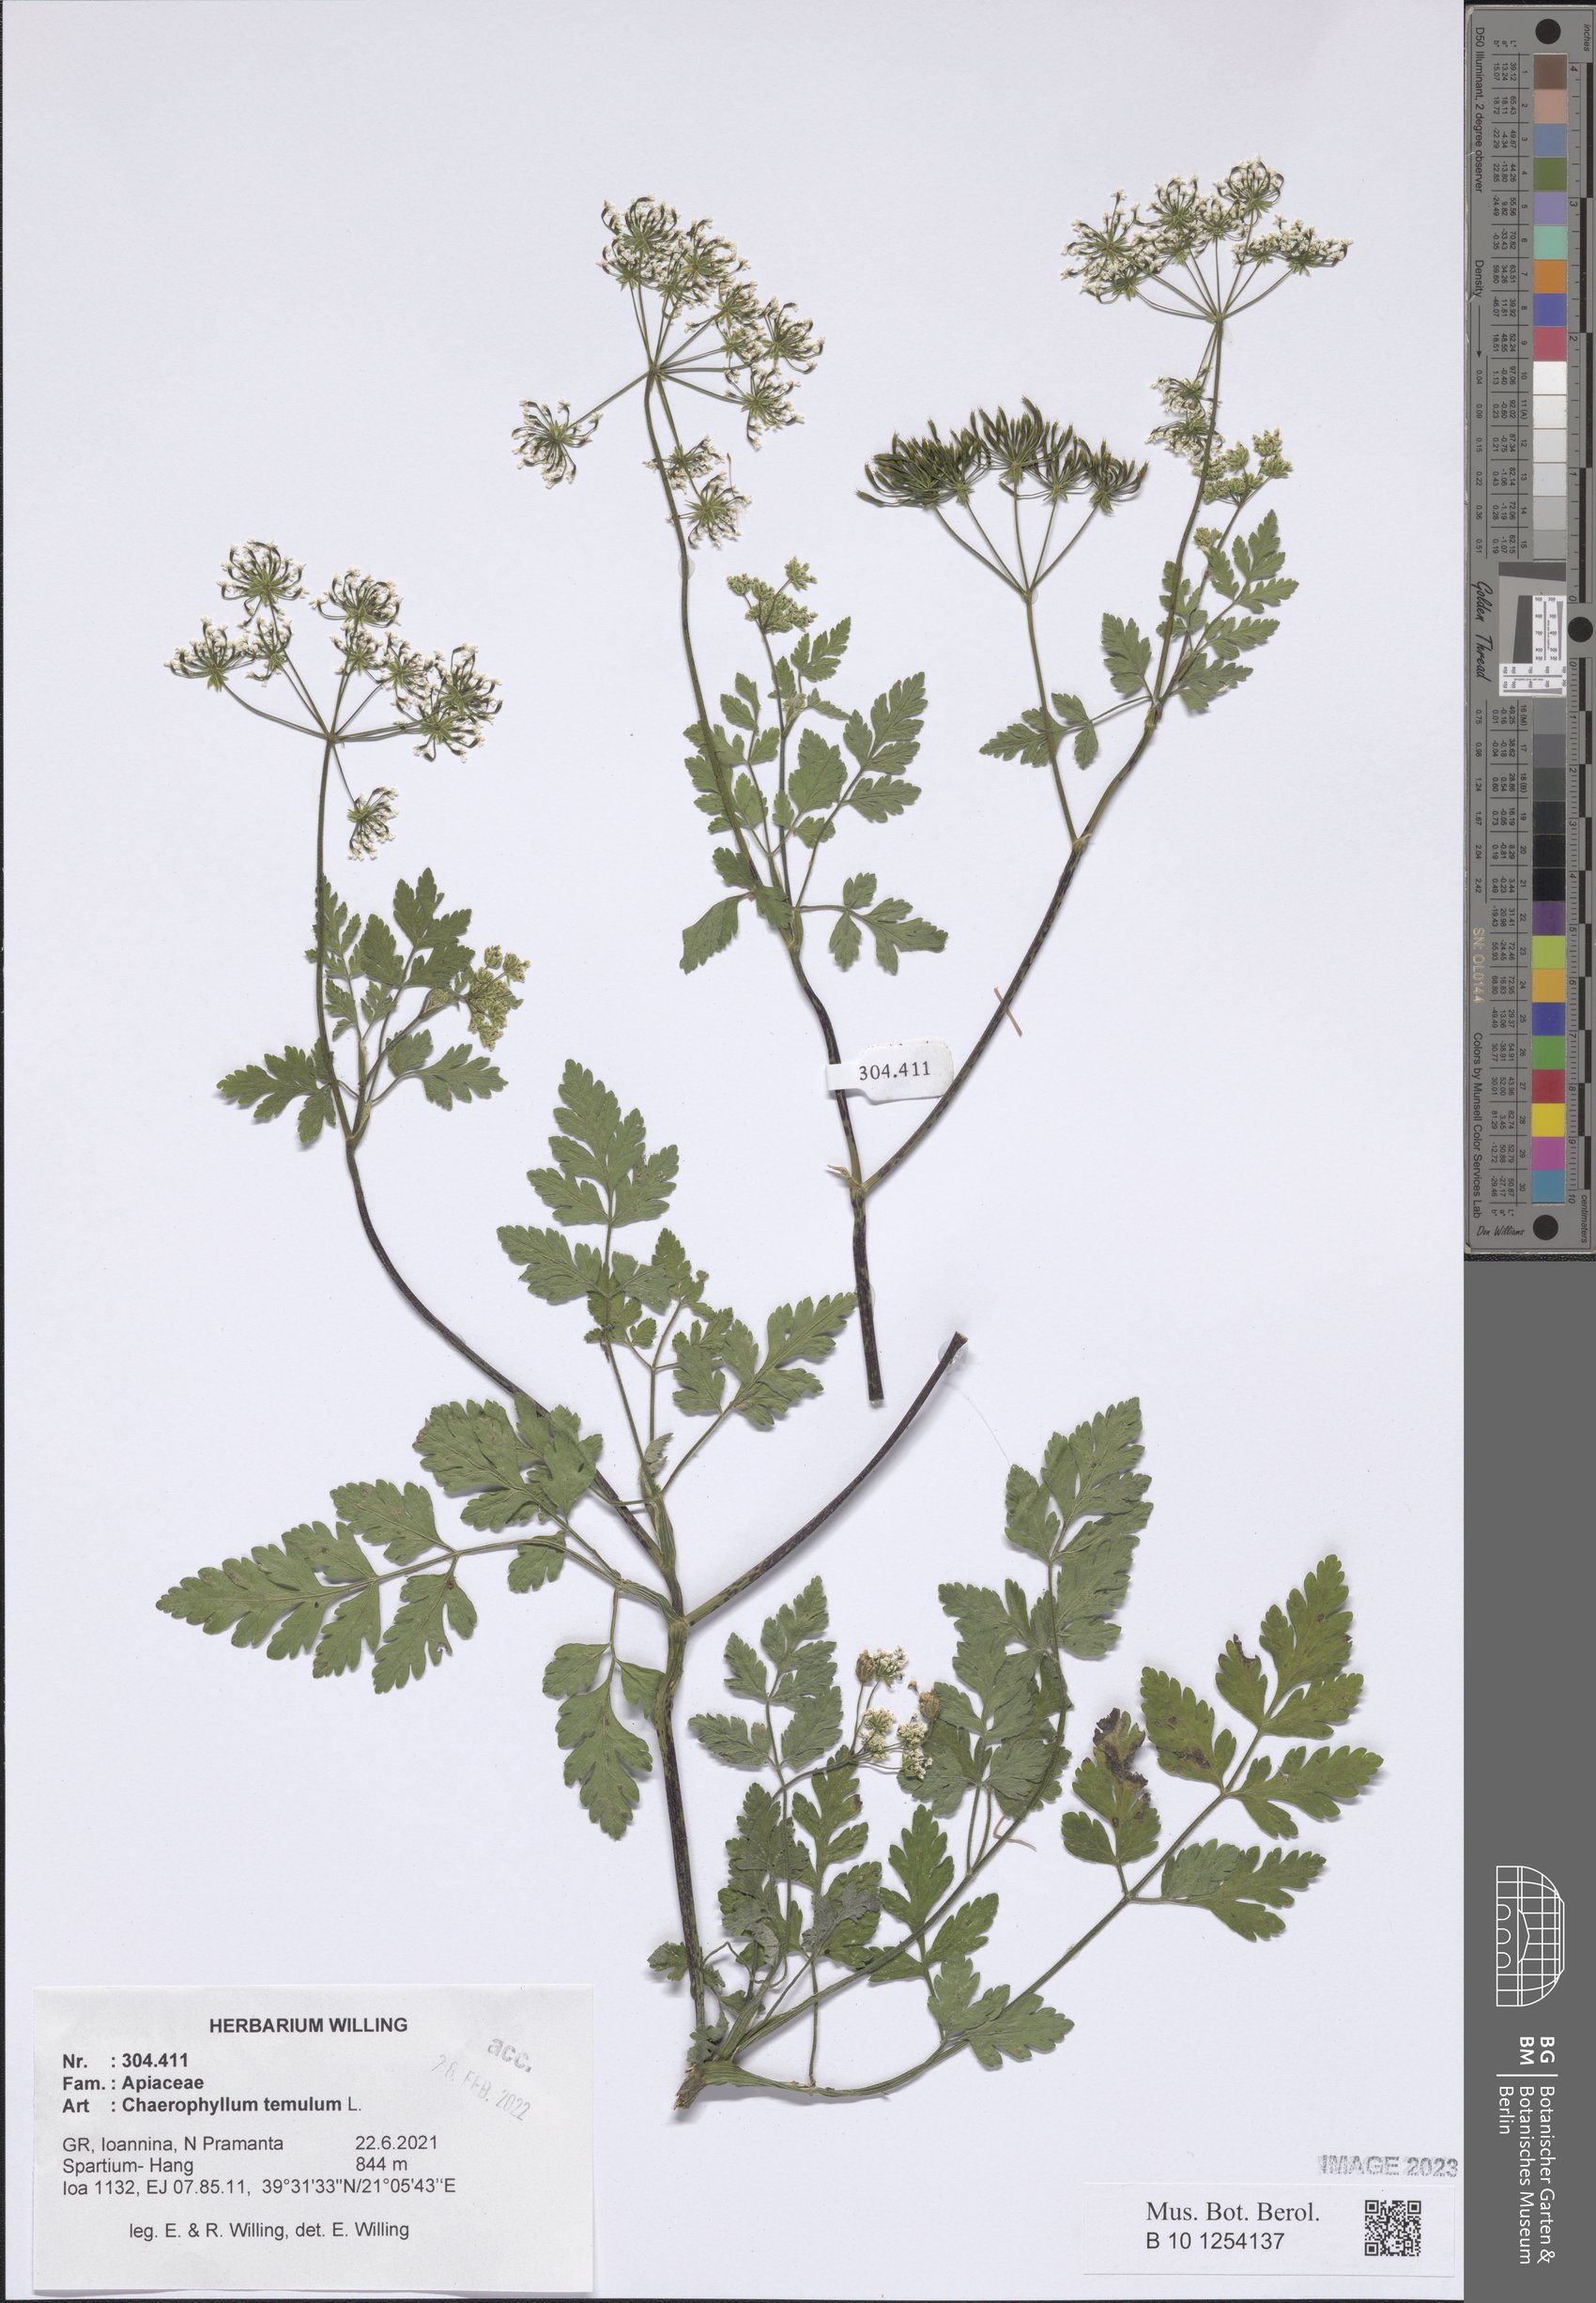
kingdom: Plantae
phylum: Tracheophyta
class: Magnoliopsida
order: Apiales
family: Apiaceae
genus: Chaerophyllum
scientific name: Chaerophyllum temulum
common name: Rough chervil
